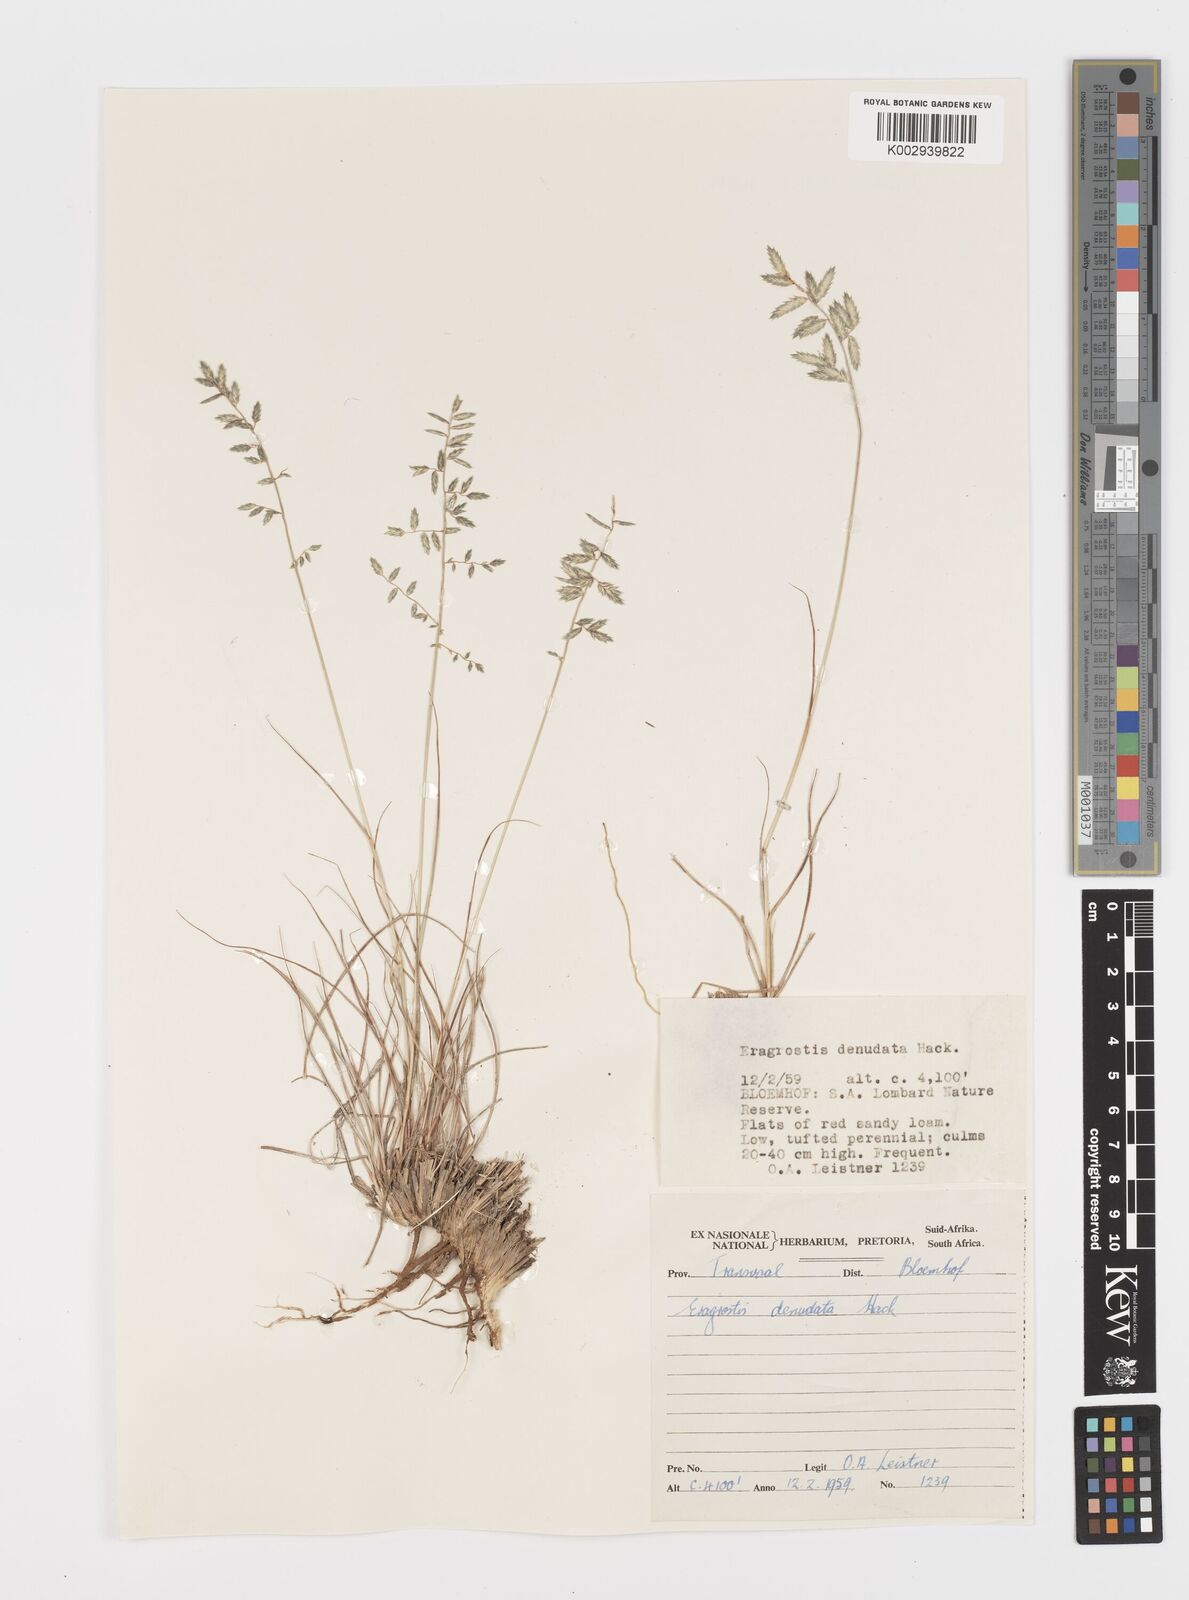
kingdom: Plantae
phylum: Tracheophyta
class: Liliopsida
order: Poales
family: Poaceae
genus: Eragrostis
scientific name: Eragrostis nindensis
